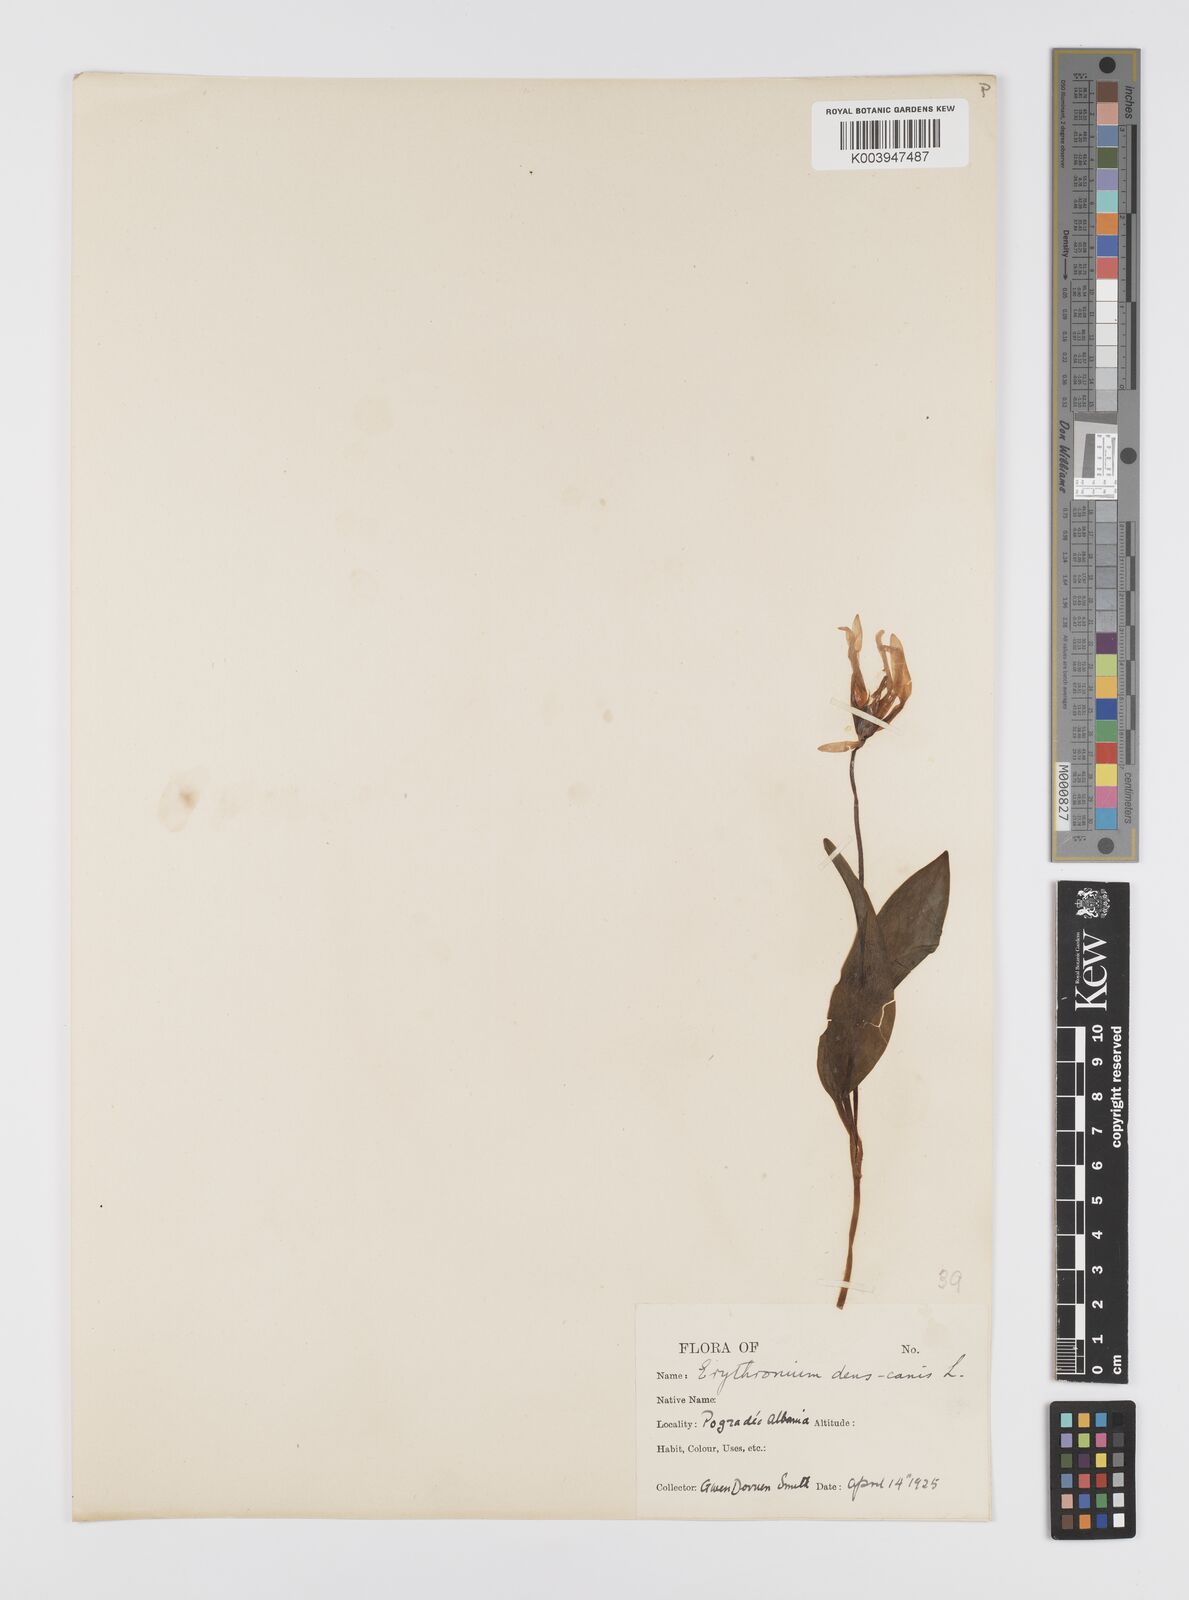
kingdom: Plantae
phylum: Tracheophyta
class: Liliopsida
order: Liliales
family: Liliaceae
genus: Erythronium
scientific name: Erythronium dens-canis
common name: Dog's-tooth-violet
